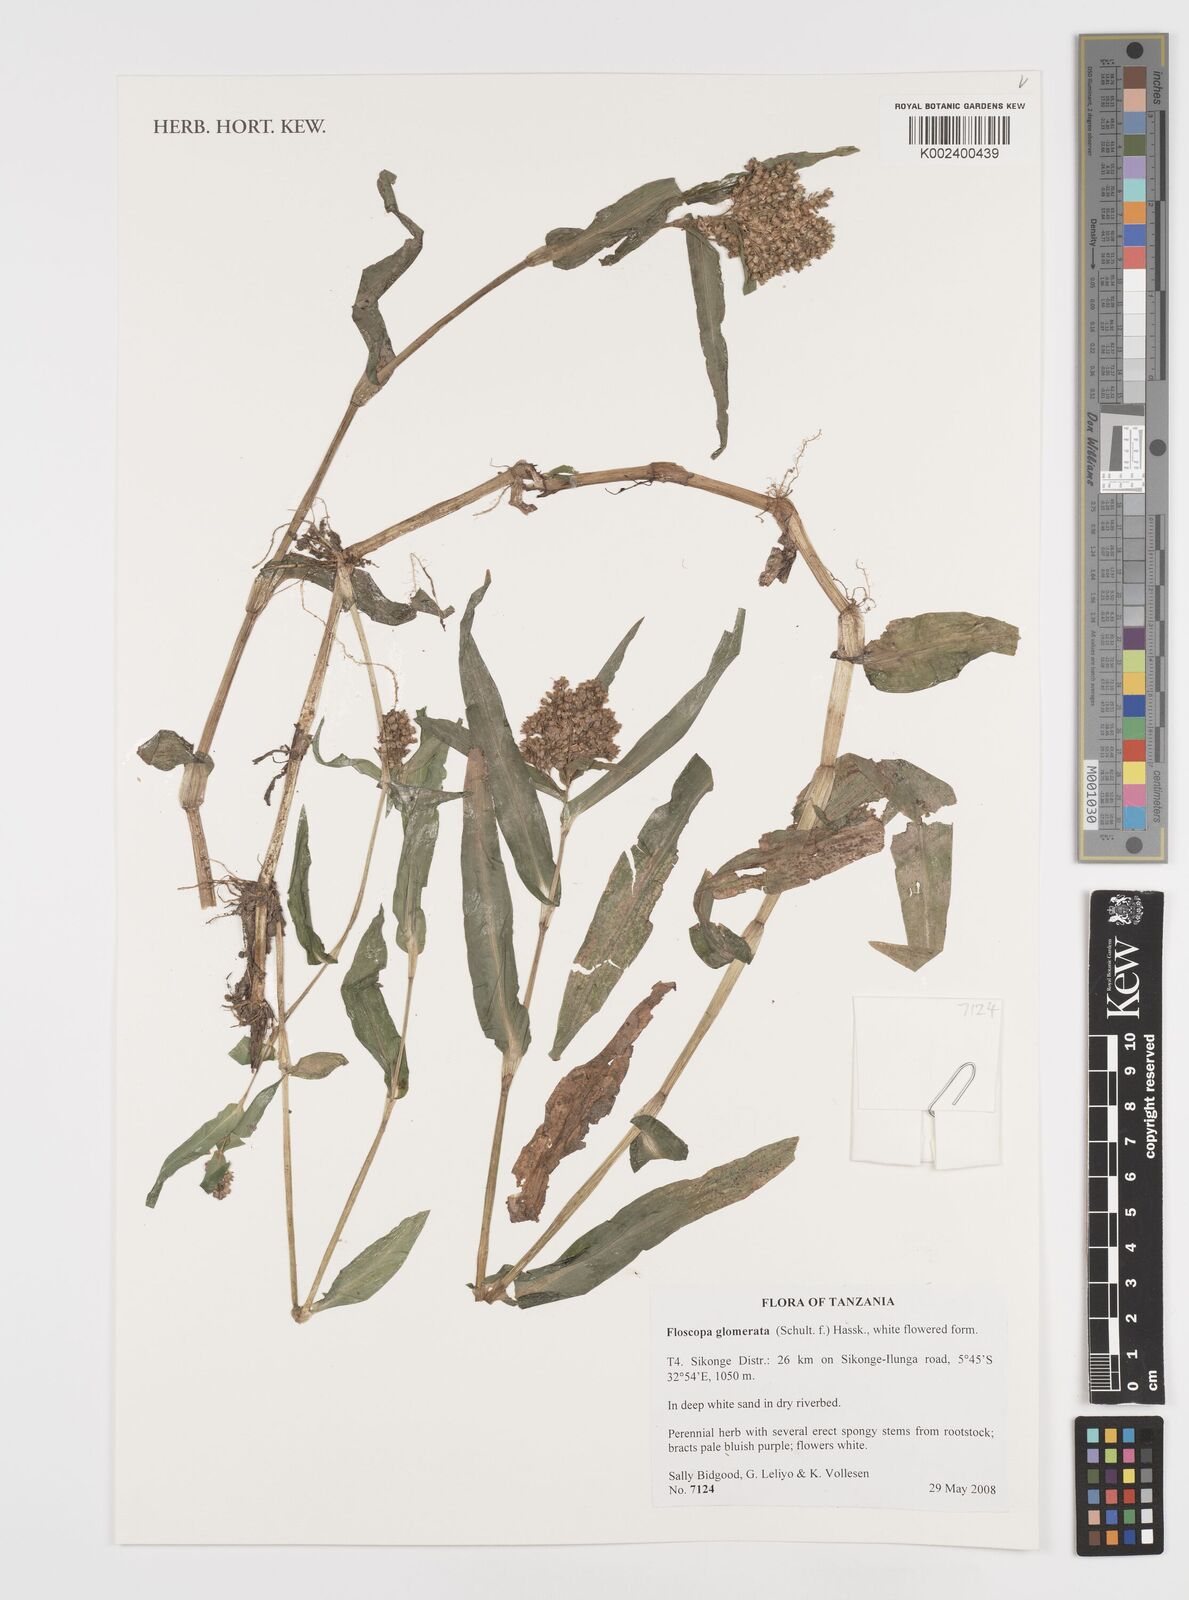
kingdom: Plantae
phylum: Tracheophyta
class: Liliopsida
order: Commelinales
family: Commelinaceae
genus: Floscopa
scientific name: Floscopa glomerata
